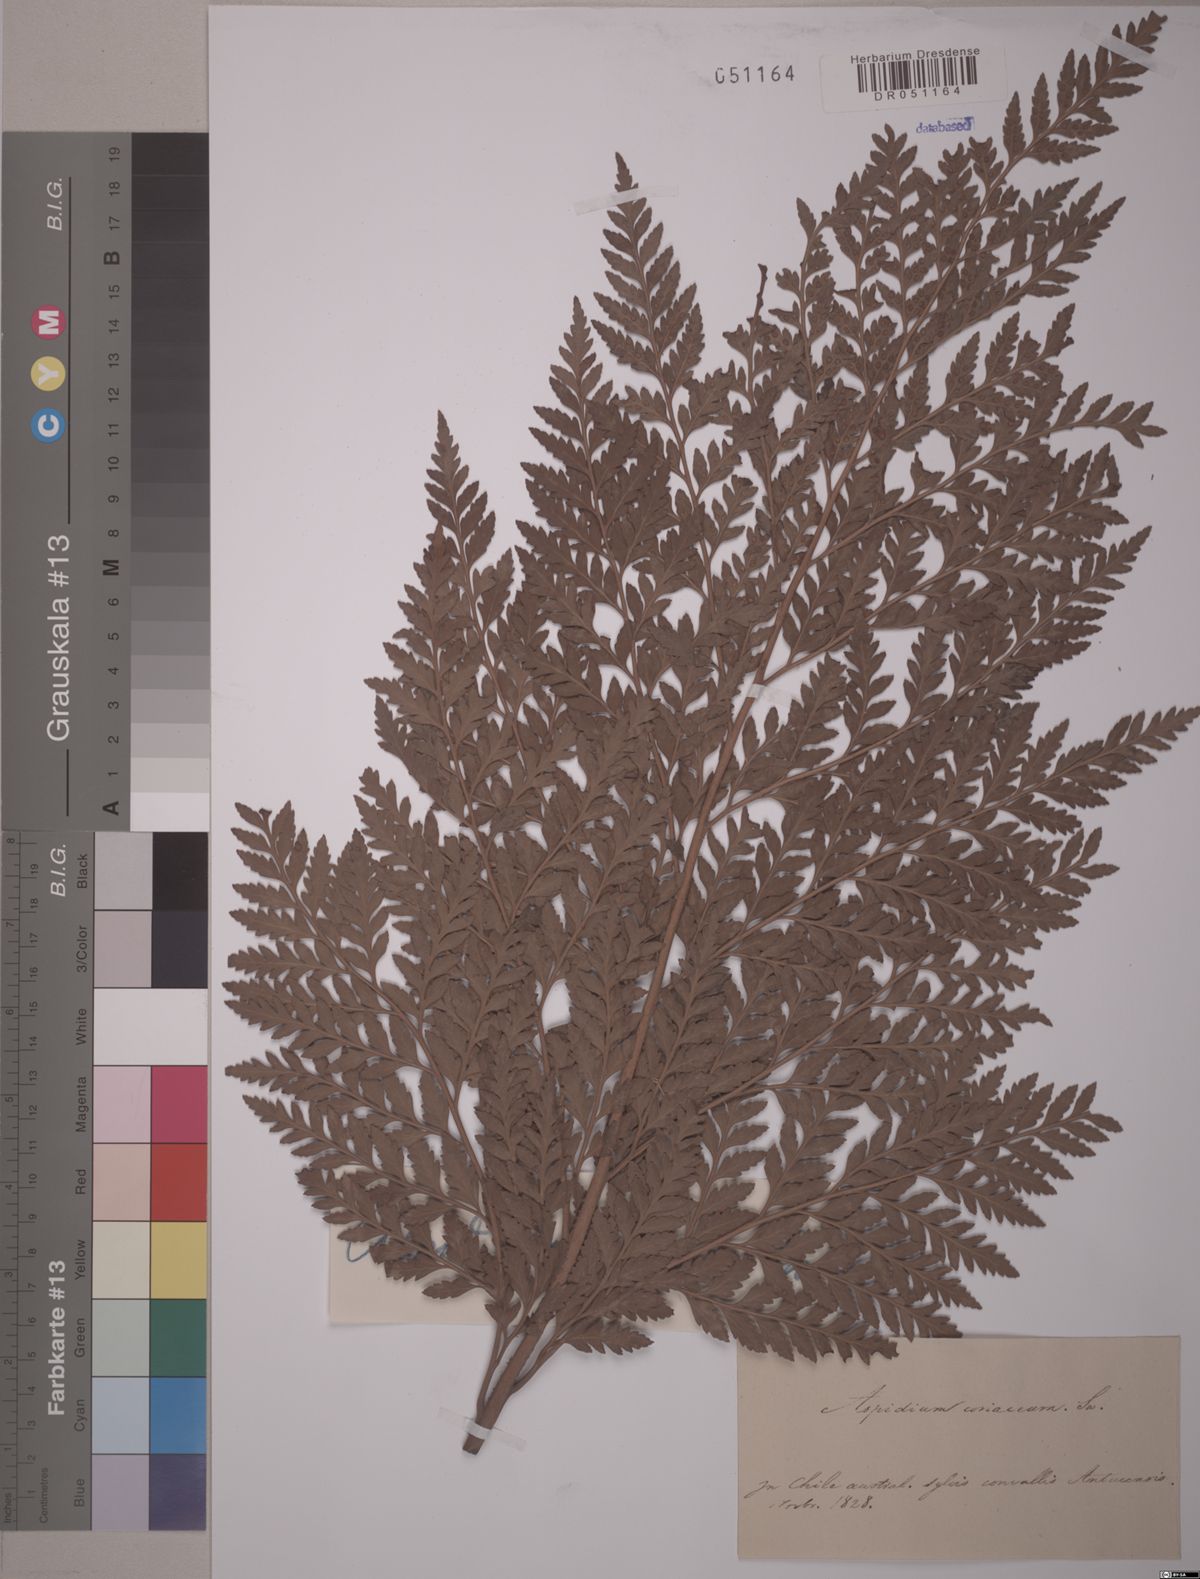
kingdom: Plantae
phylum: Tracheophyta
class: Polypodiopsida
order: Polypodiales
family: Dryopteridaceae
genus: Rumohra
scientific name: Rumohra adiantiformis
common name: Leather fern
